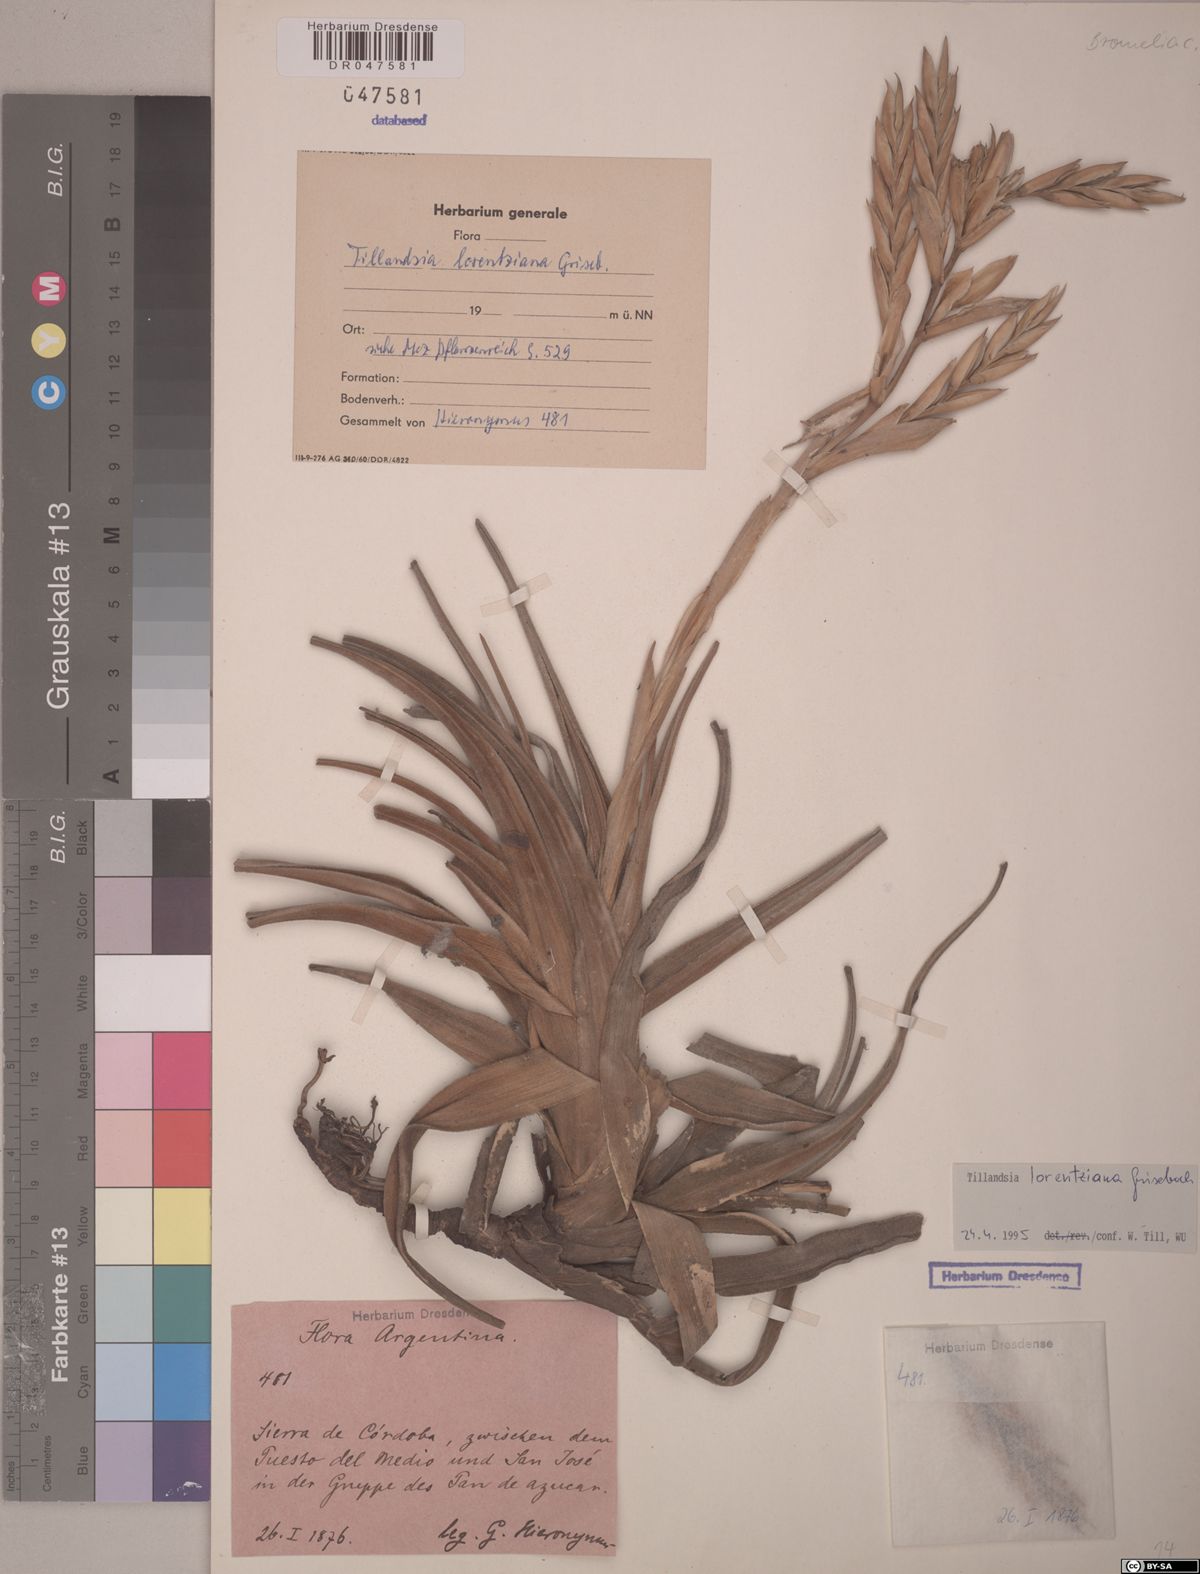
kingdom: Plantae
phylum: Tracheophyta
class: Liliopsida
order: Poales
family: Bromeliaceae
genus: Tillandsia
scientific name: Tillandsia lorentziana
